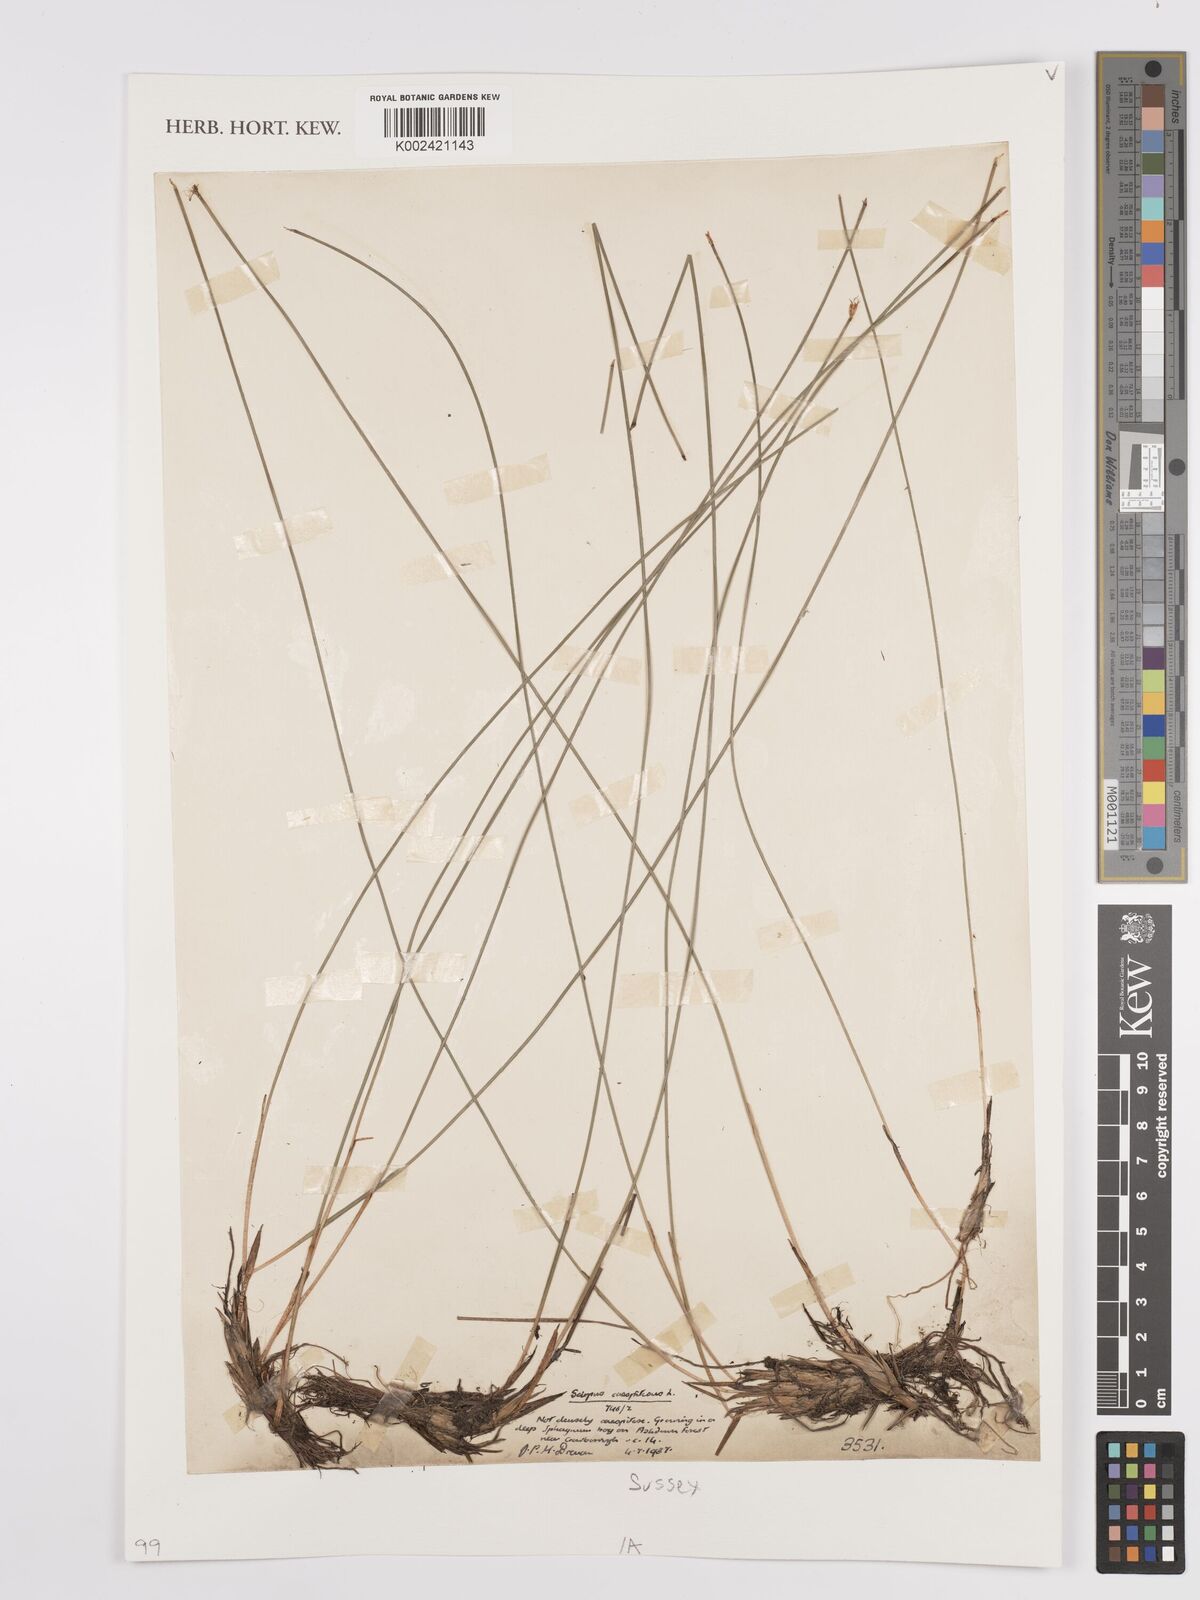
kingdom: Plantae
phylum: Tracheophyta
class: Liliopsida
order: Poales
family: Cyperaceae
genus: Eleocharis
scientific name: Eleocharis palustris
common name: Common spike-rush
